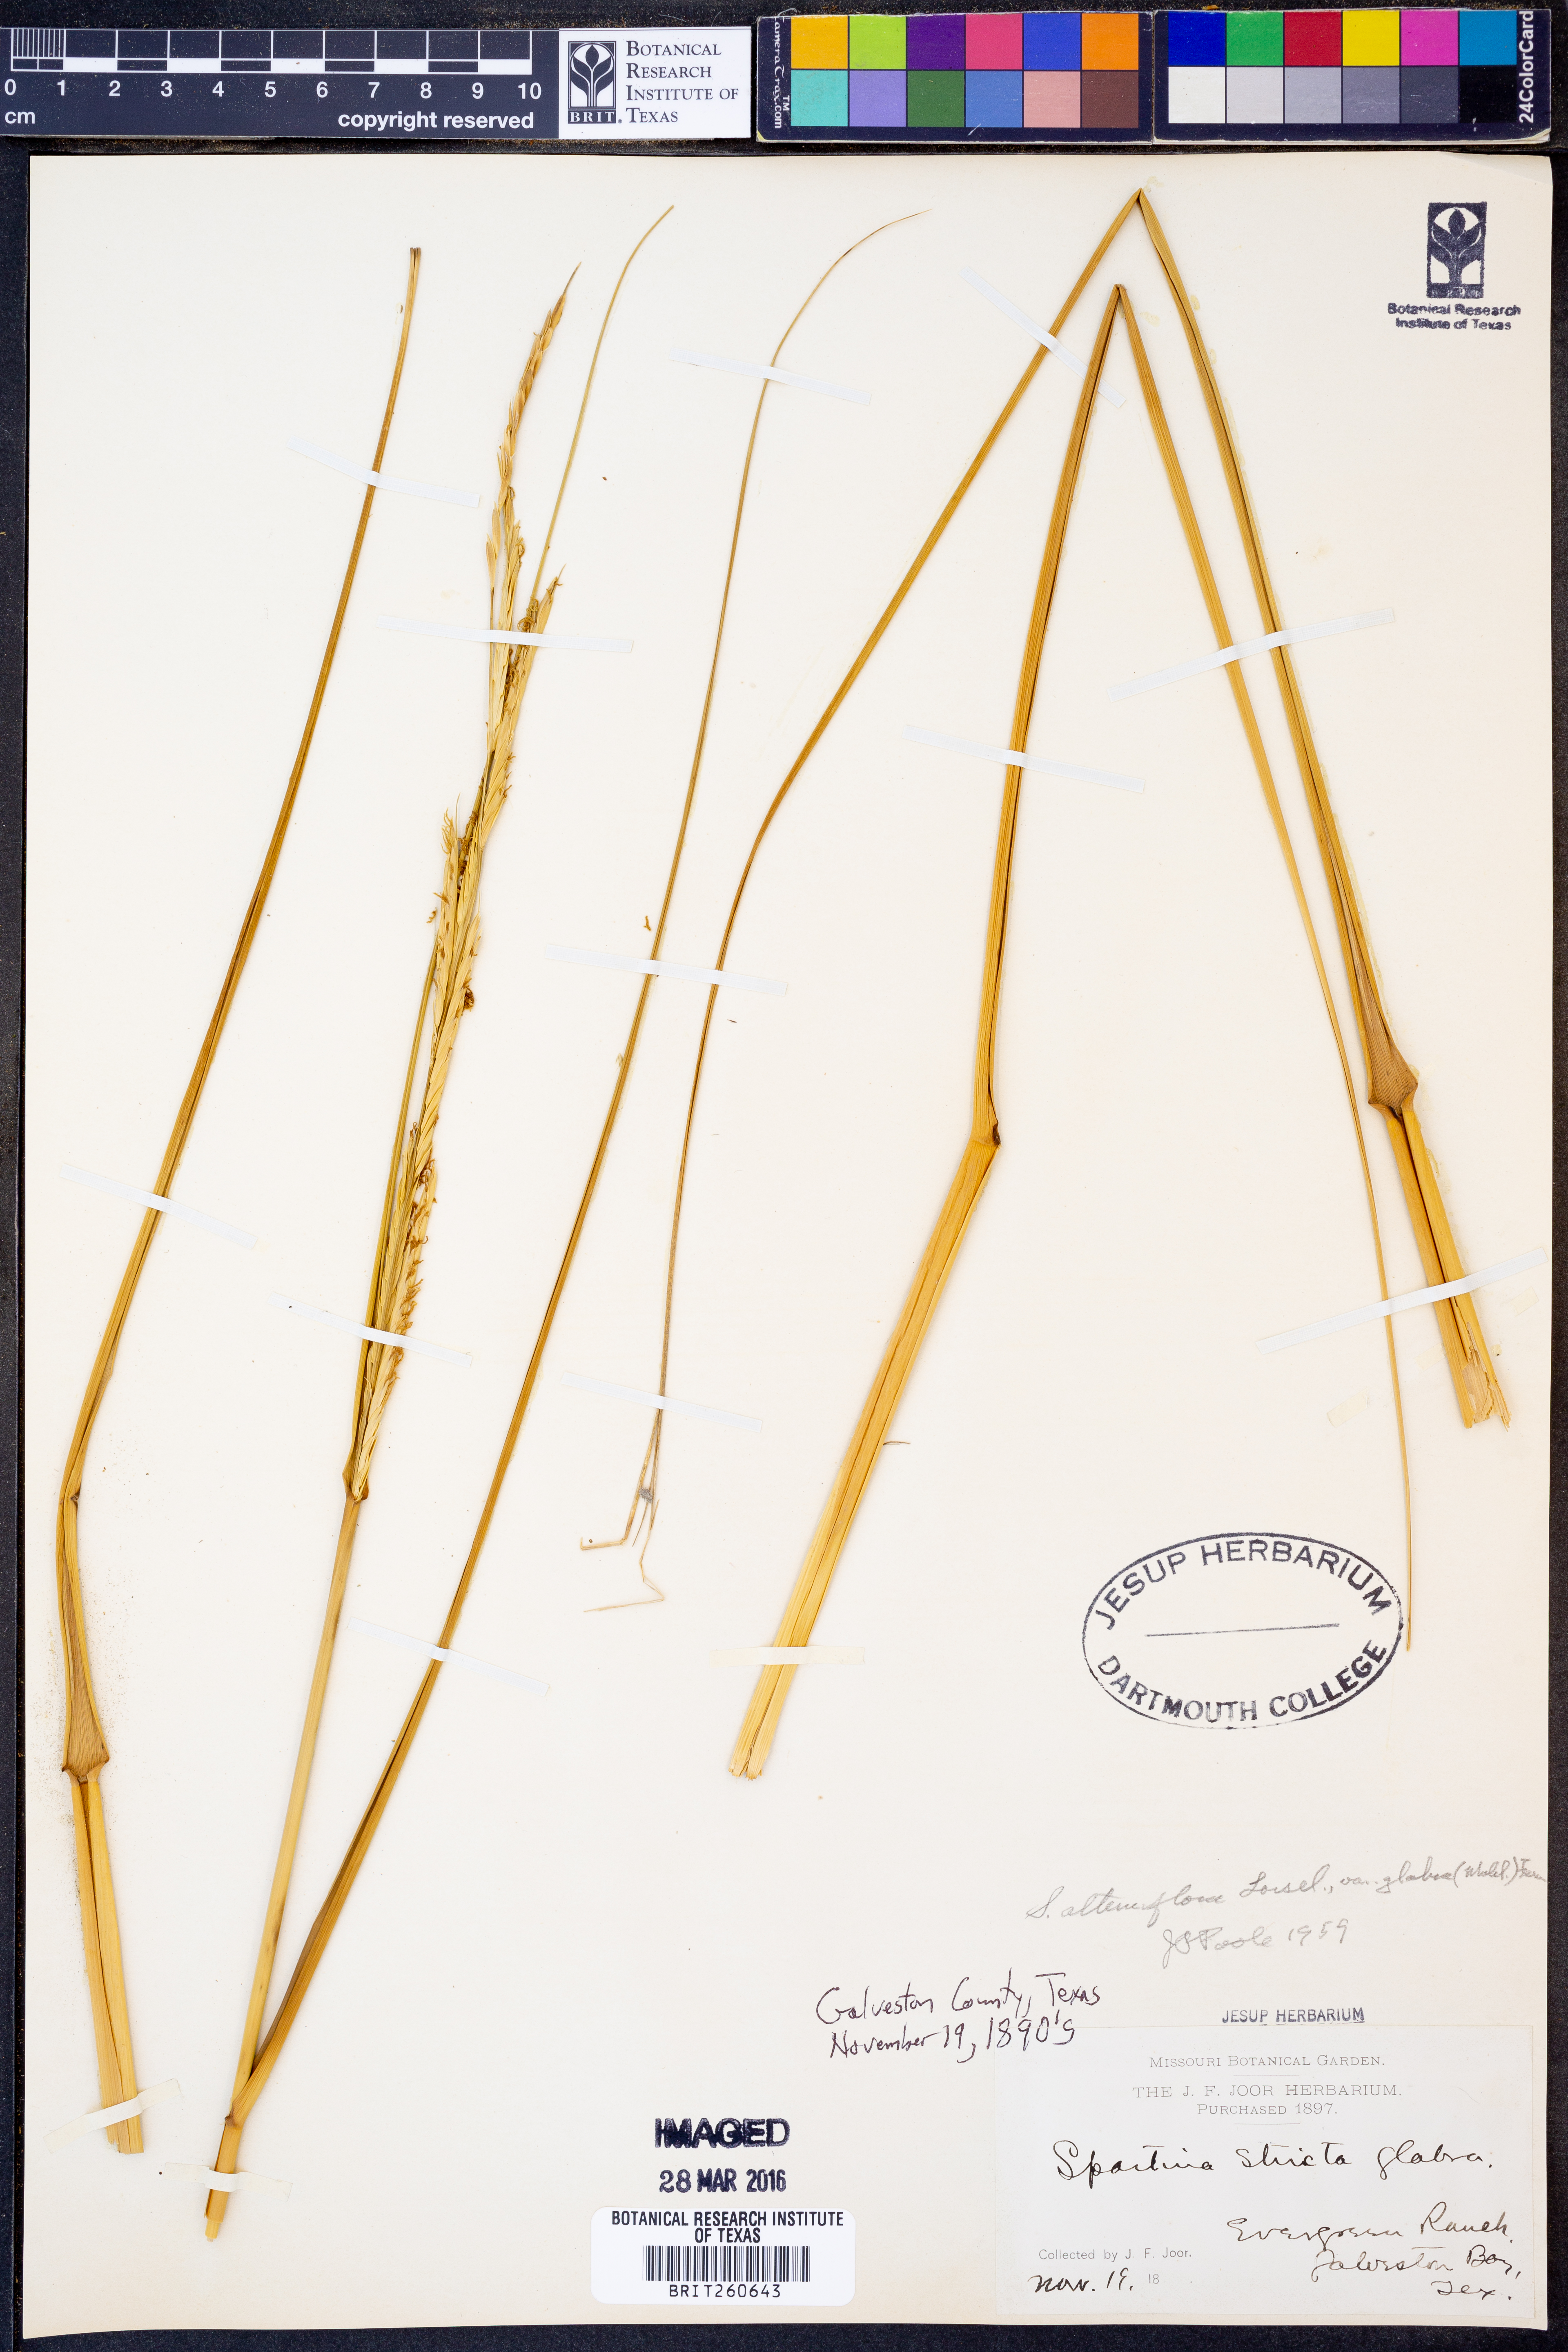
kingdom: Plantae
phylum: Tracheophyta
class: Liliopsida
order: Poales
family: Poaceae
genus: Sporobolus
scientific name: Sporobolus alterniflorus
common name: Atlantic cordgrass
